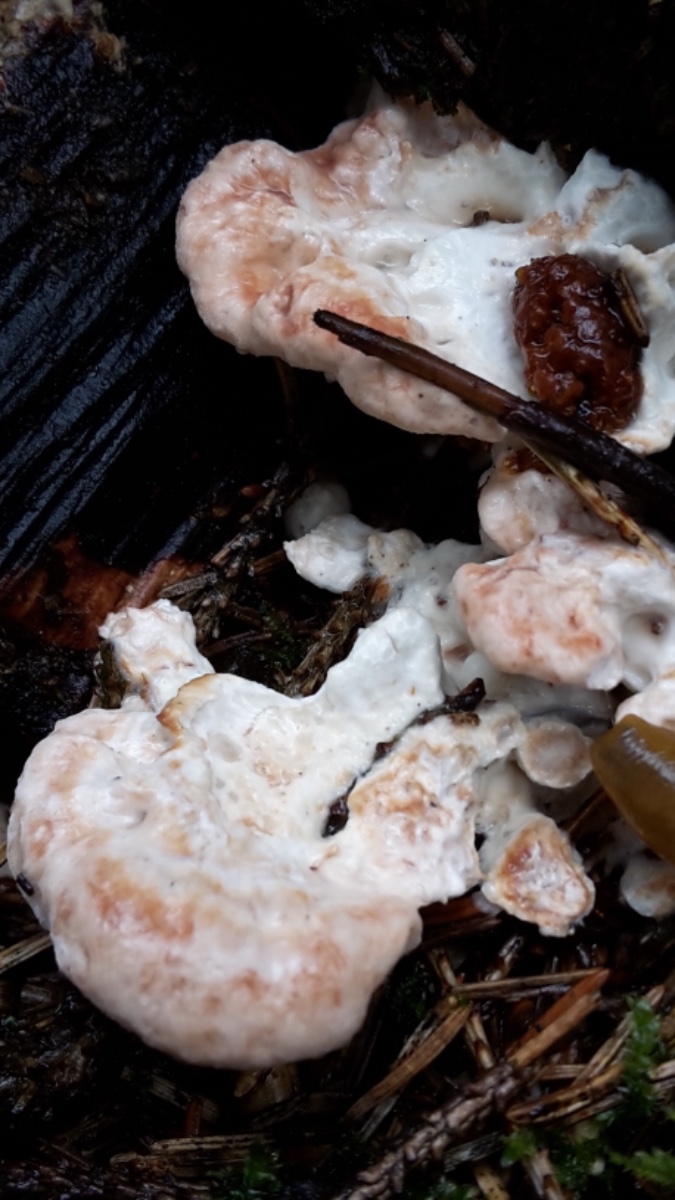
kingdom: Fungi
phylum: Basidiomycota
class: Agaricomycetes
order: Polyporales
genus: Calcipostia
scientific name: Calcipostia guttulata
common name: dråbe-kødporesvamp
